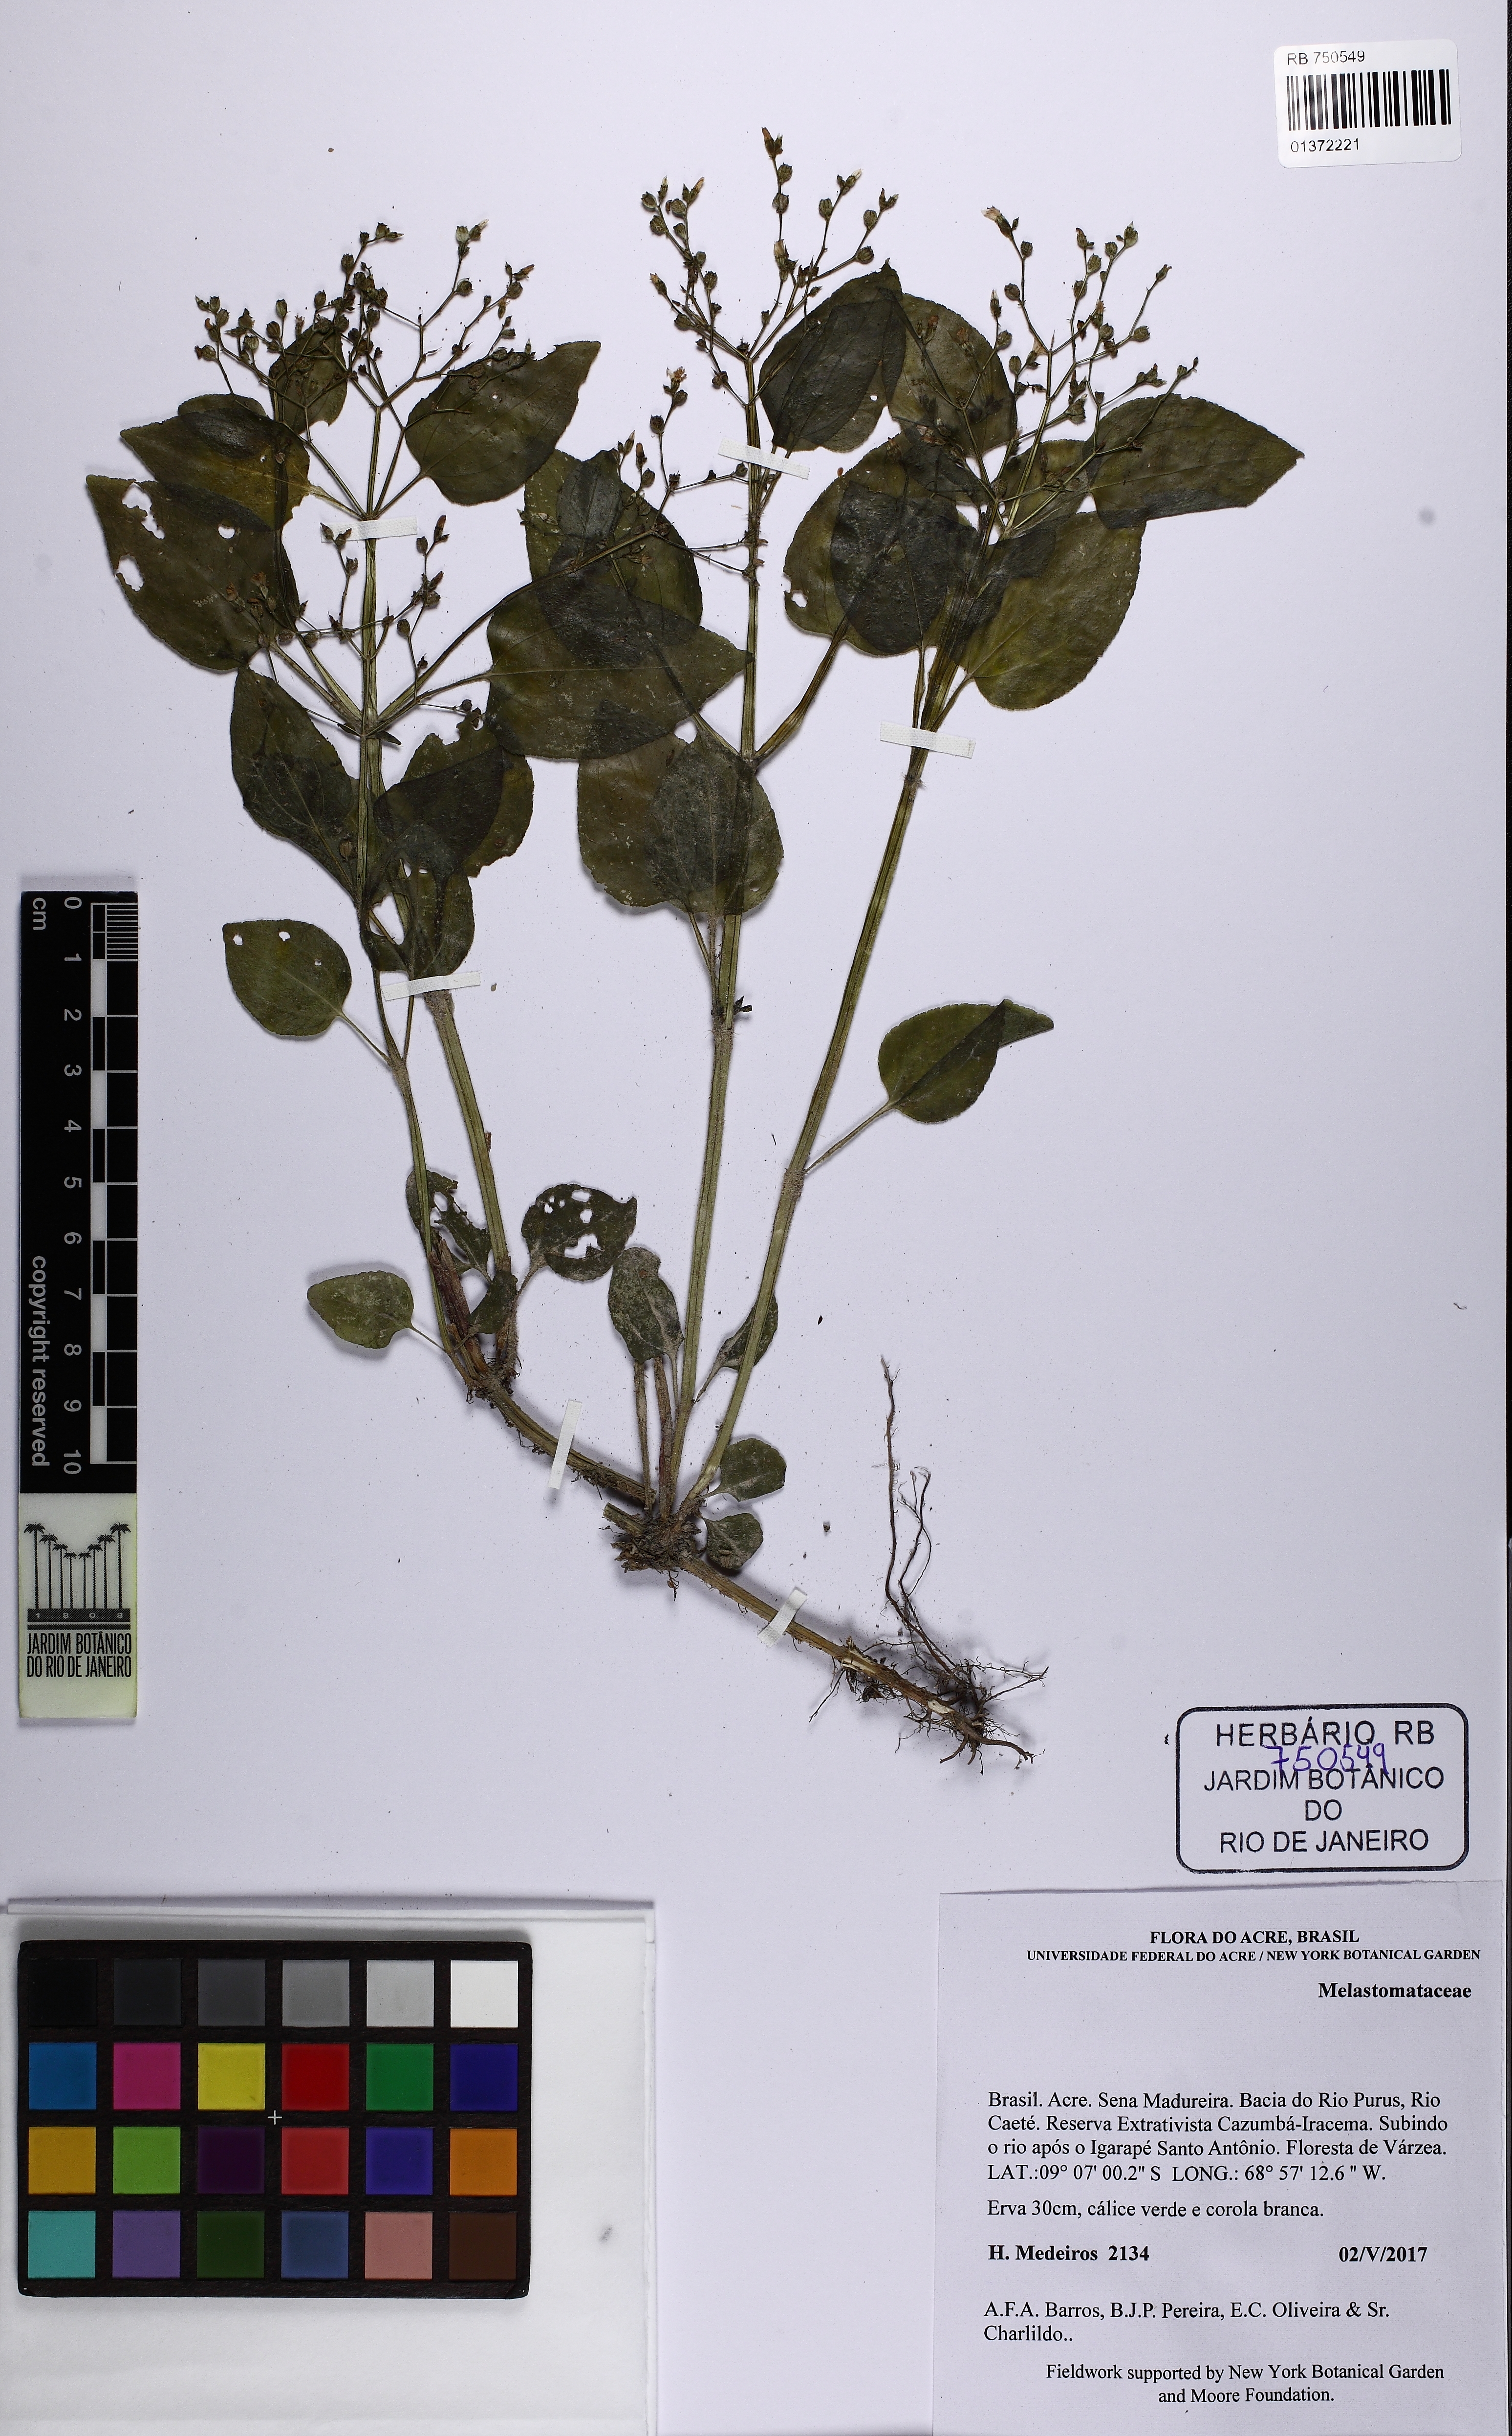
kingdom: Plantae
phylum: Tracheophyta
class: Magnoliopsida
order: Myrtales
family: Melastomataceae
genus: Aciotis
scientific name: Aciotis acuminifolia
